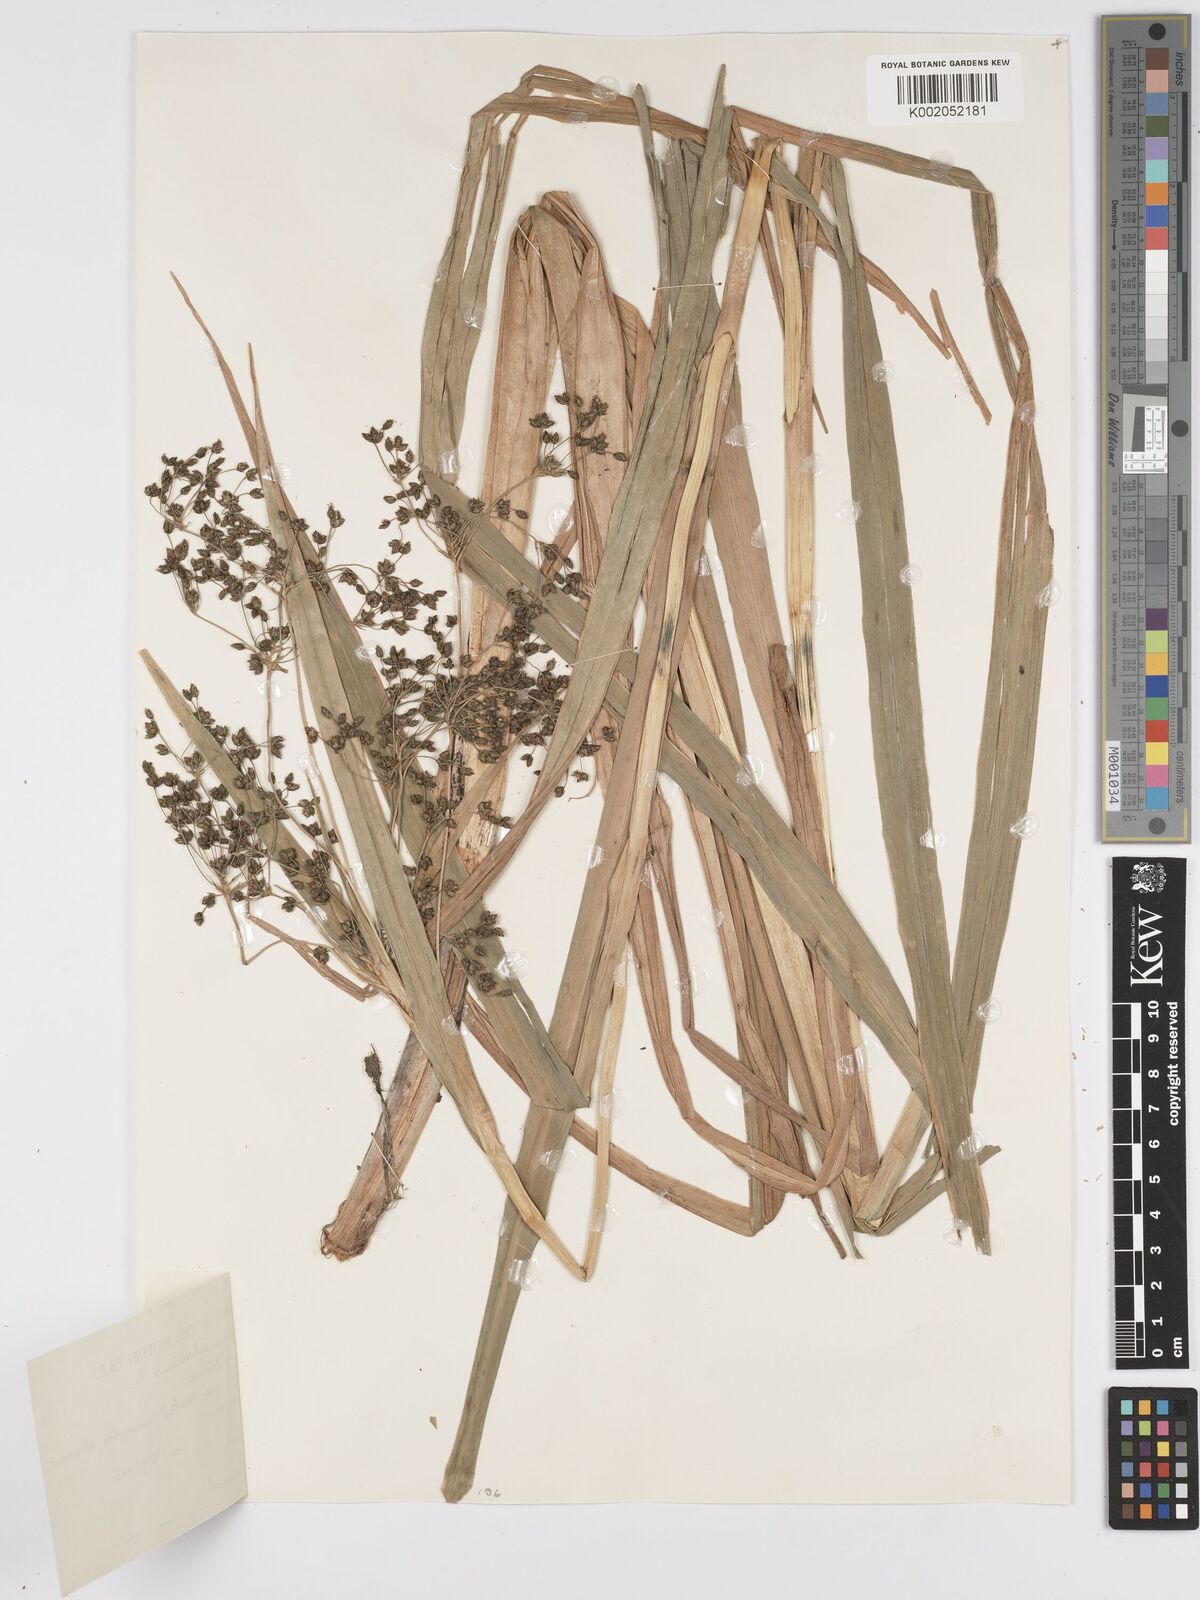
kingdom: Plantae
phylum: Tracheophyta
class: Liliopsida
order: Poales
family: Cyperaceae
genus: Scirpus
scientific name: Scirpus sylvaticus
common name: Wood club-rush
